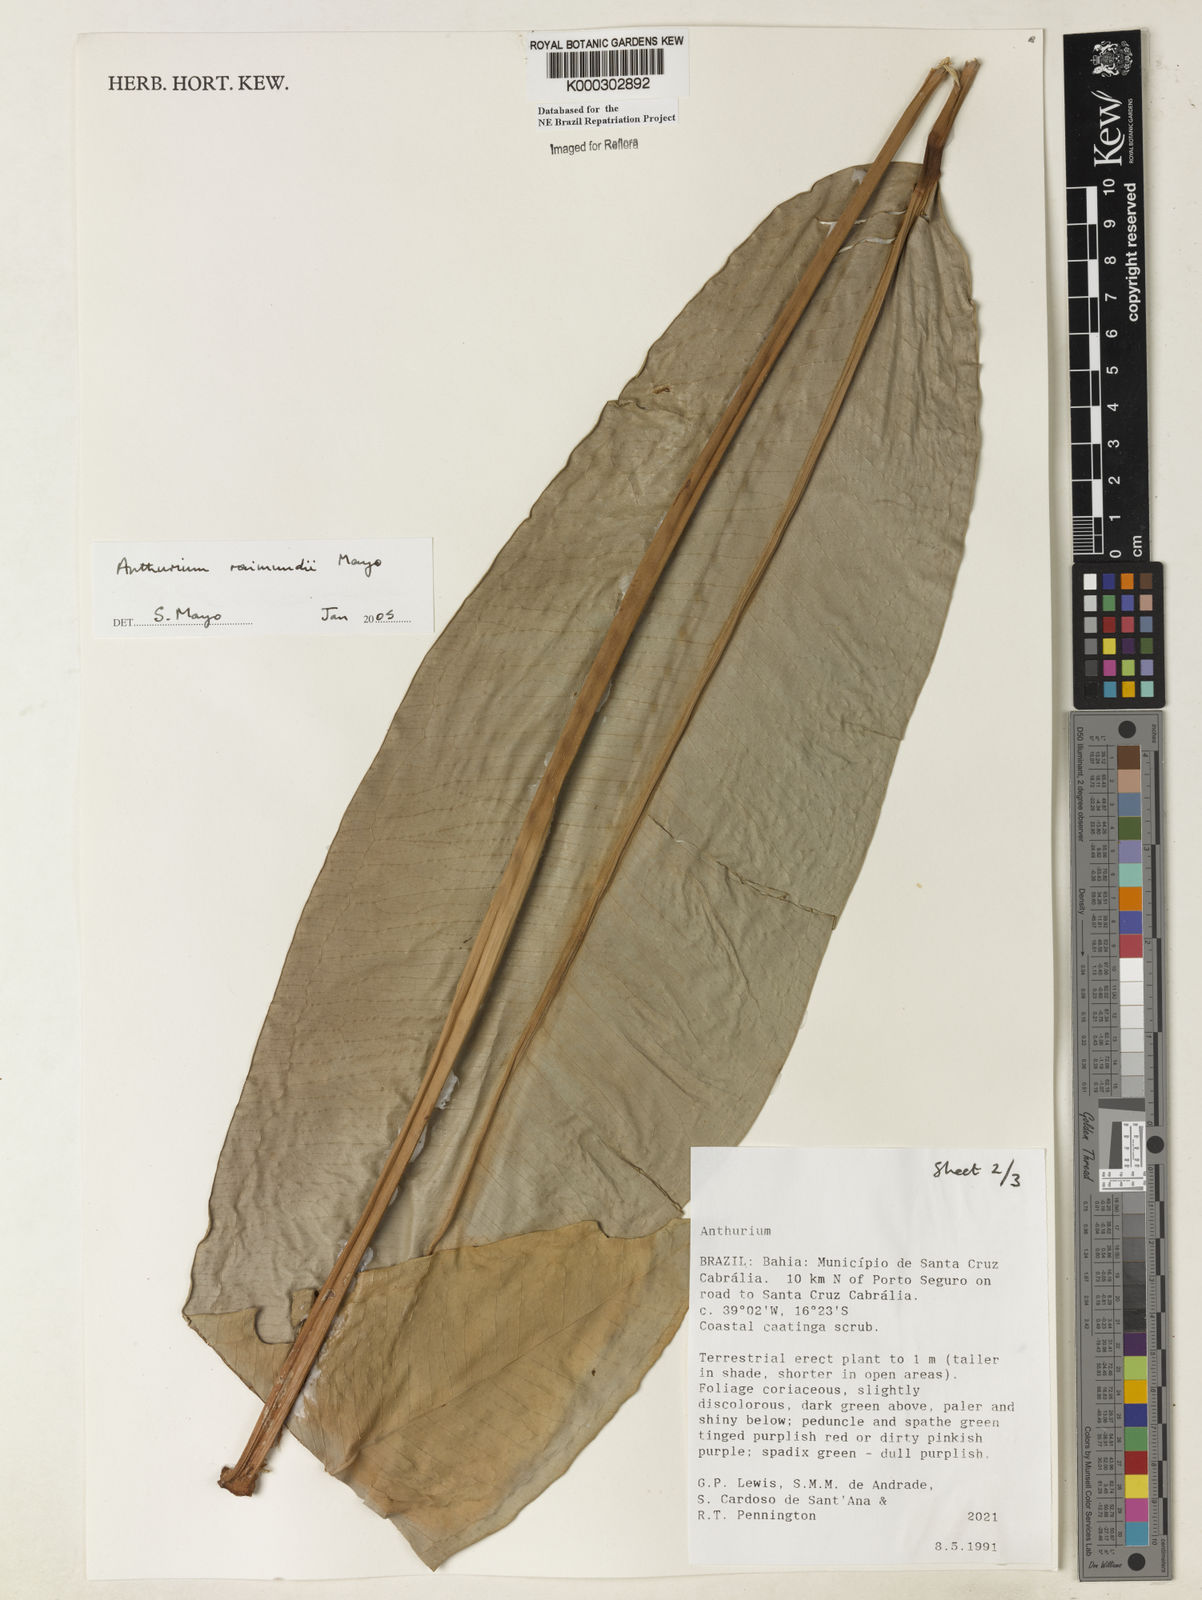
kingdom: Plantae
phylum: Tracheophyta
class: Liliopsida
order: Alismatales
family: Araceae
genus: Anthurium
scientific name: Anthurium raimundii
